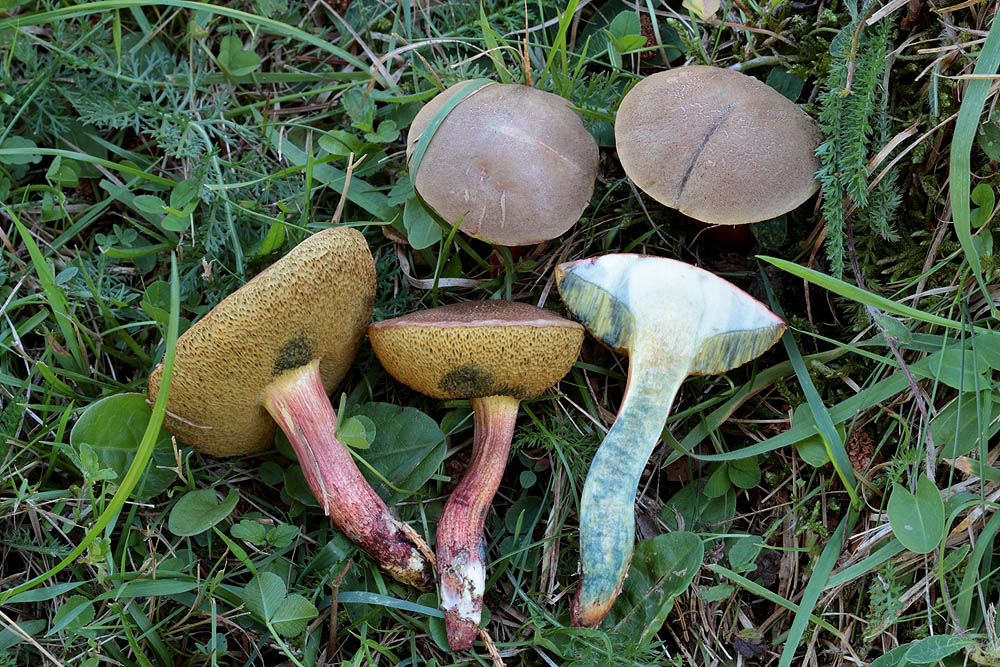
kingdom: Fungi
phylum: Basidiomycota
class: Agaricomycetes
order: Boletales
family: Boletaceae
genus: Xerocomellus
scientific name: Xerocomellus cisalpinus
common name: finsprukken rørhat
